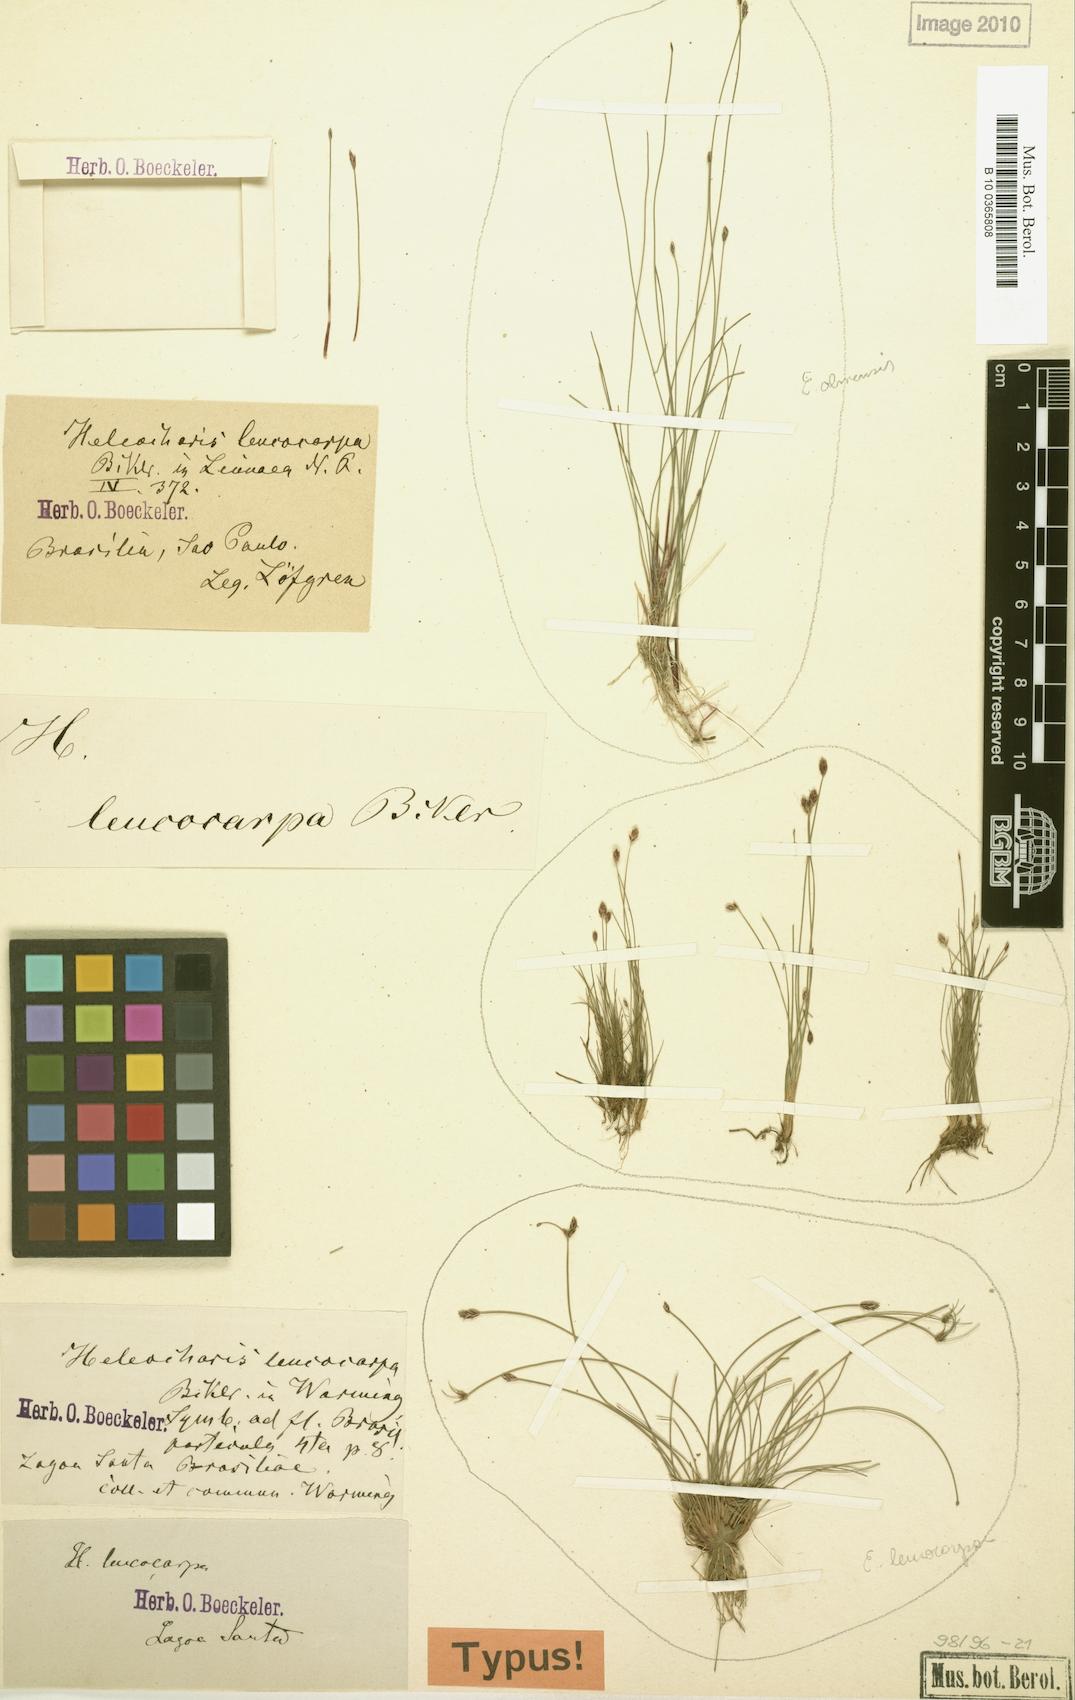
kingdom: Plantae
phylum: Tracheophyta
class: Liliopsida
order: Poales
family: Cyperaceae
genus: Eleocharis
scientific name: Eleocharis
